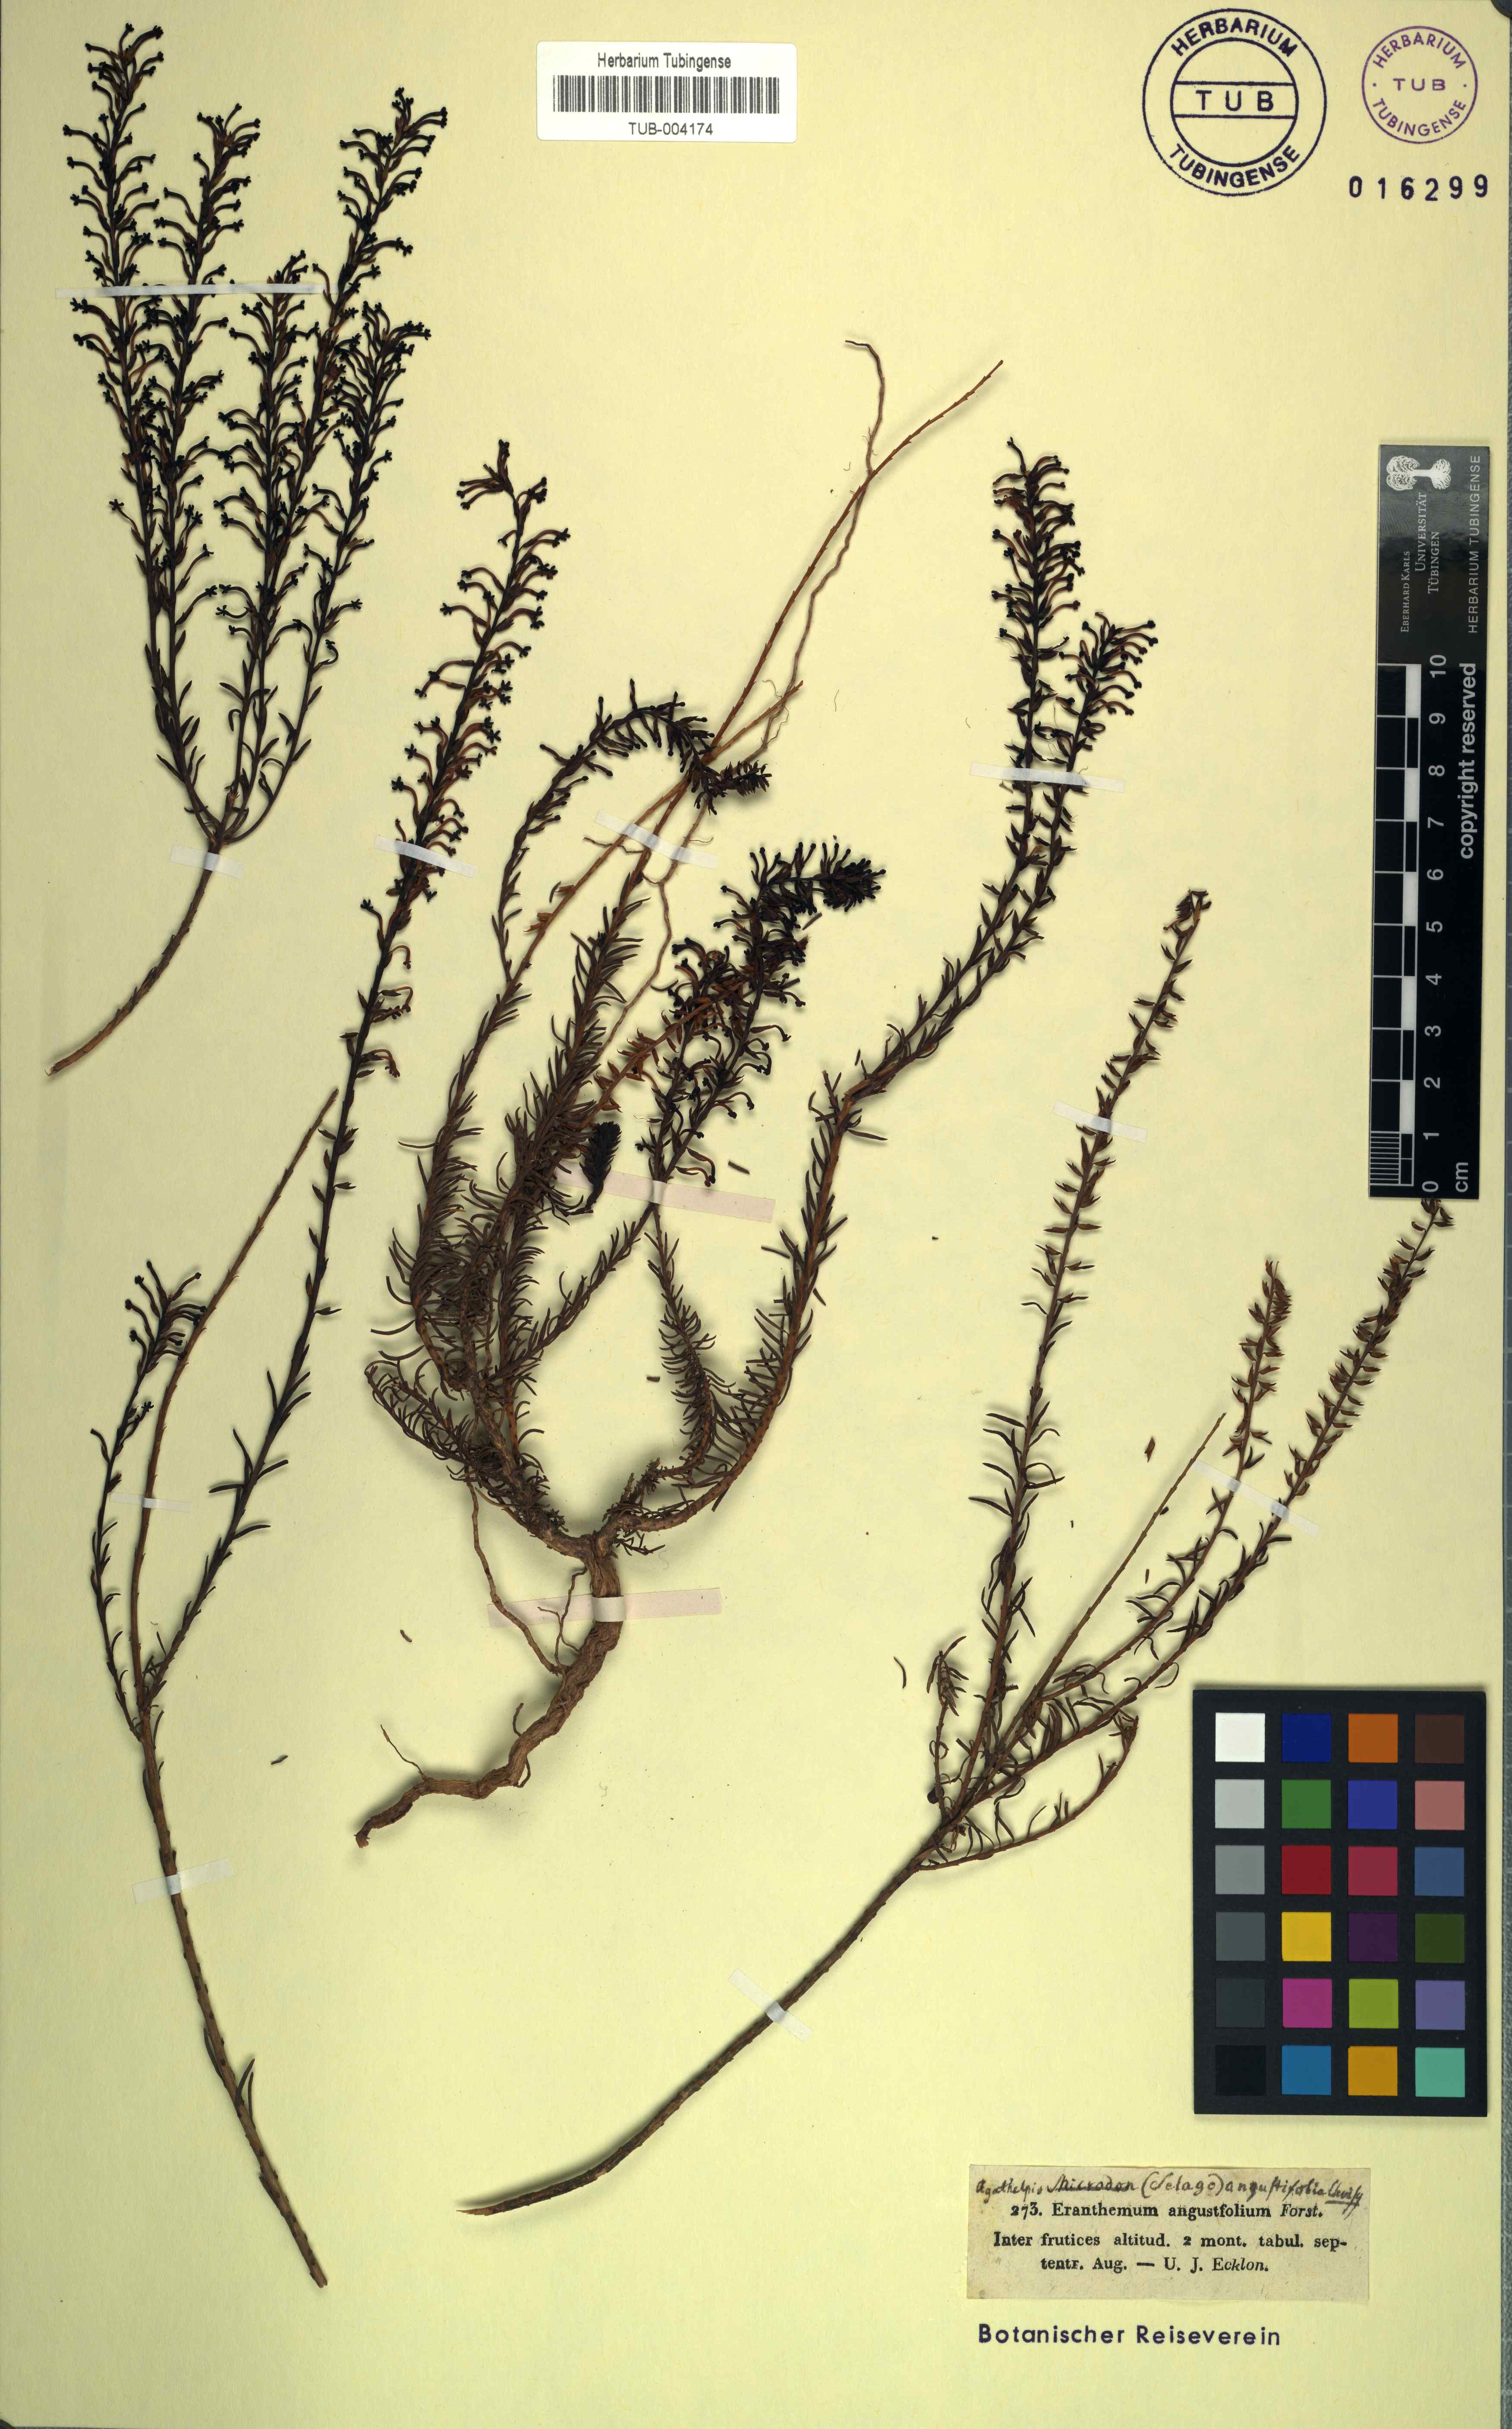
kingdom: Plantae
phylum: Tracheophyta
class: Magnoliopsida
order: Lamiales
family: Scrophulariaceae
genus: Microdon
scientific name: Microdon dubius
